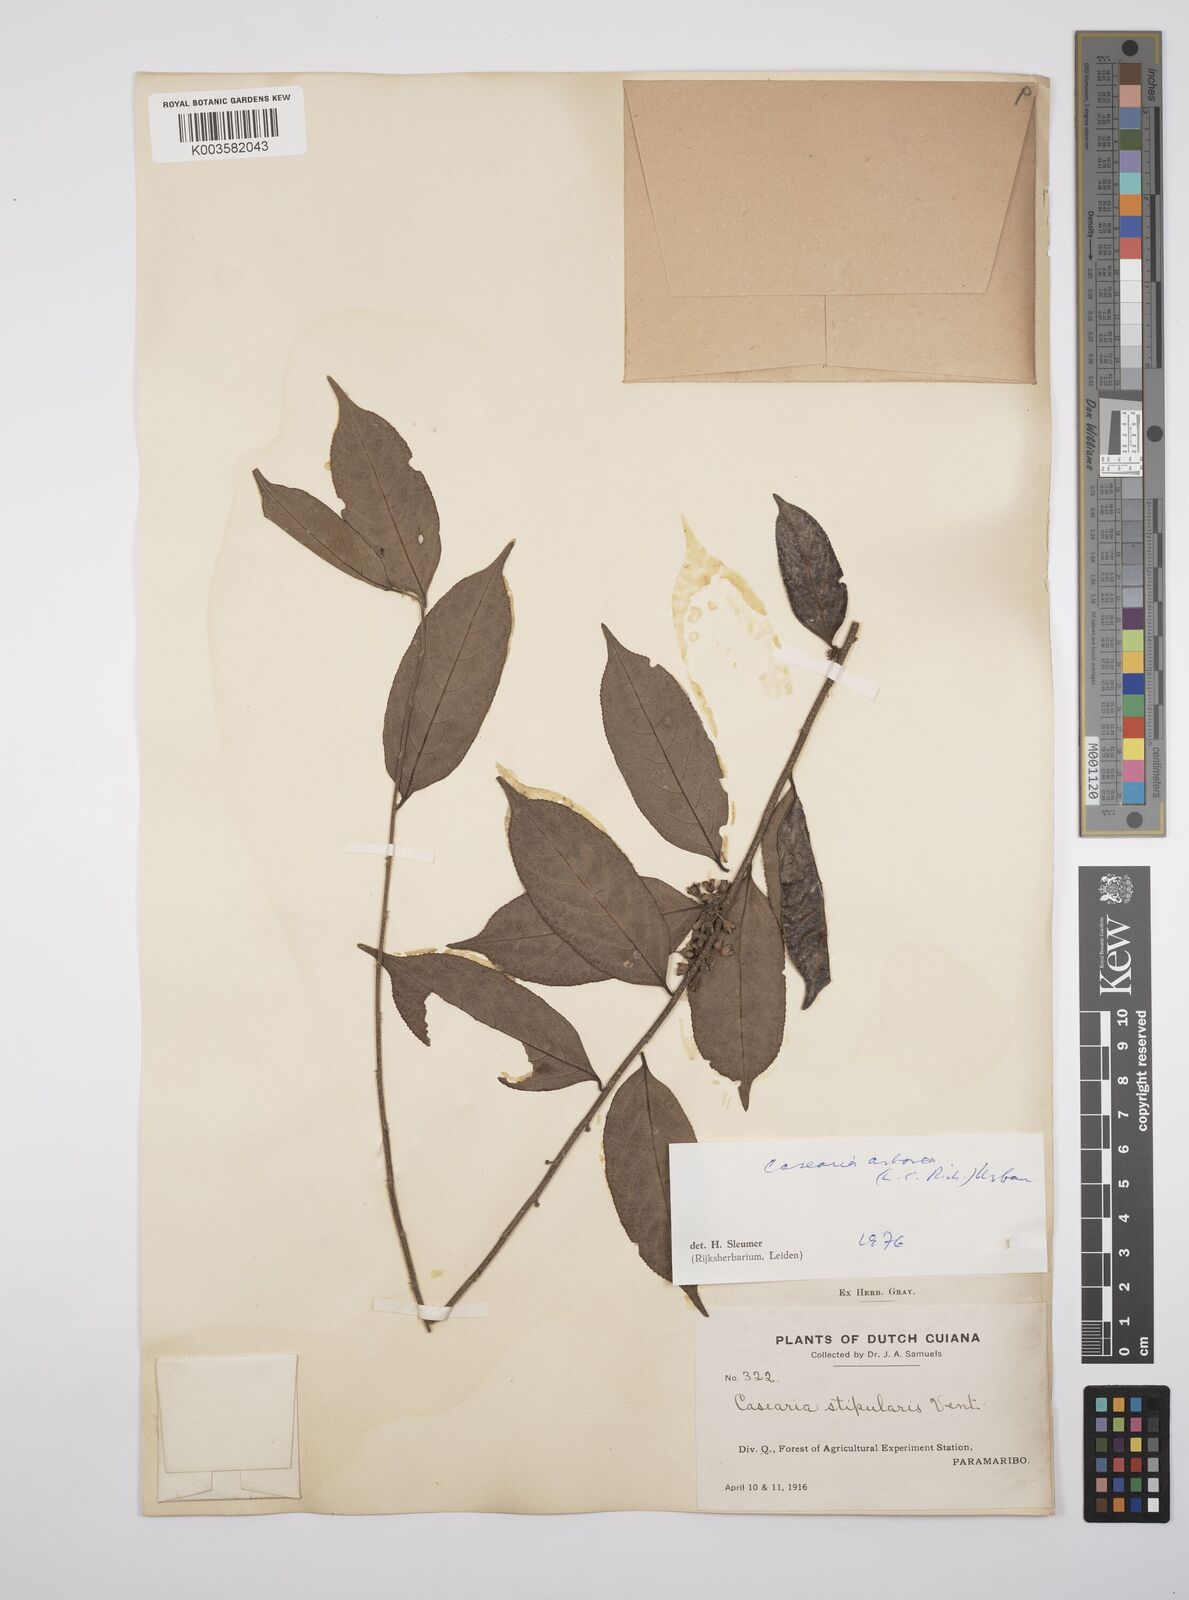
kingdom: Plantae
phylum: Tracheophyta
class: Magnoliopsida
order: Malpighiales
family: Salicaceae
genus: Casearia
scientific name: Casearia arborea
